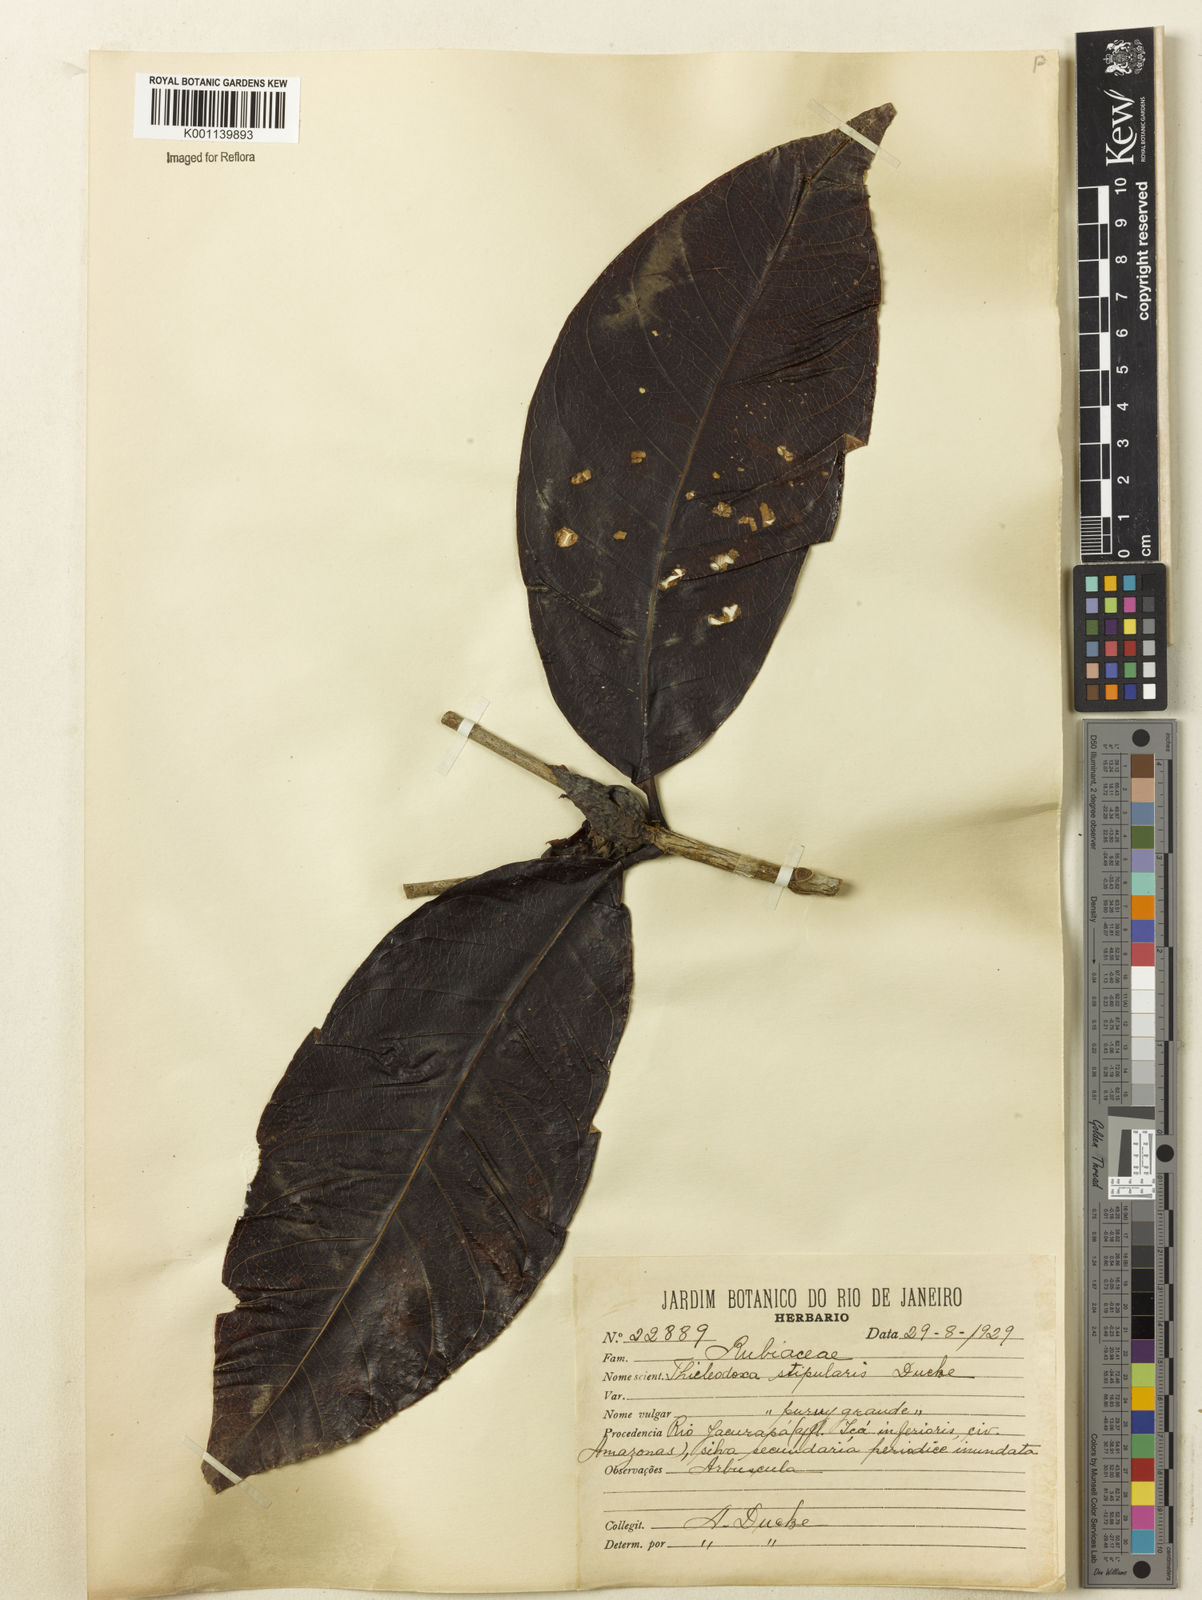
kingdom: Plantae
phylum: Tracheophyta
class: Magnoliopsida
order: Gentianales
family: Rubiaceae
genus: Alibertia
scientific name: Alibertia verticillata
